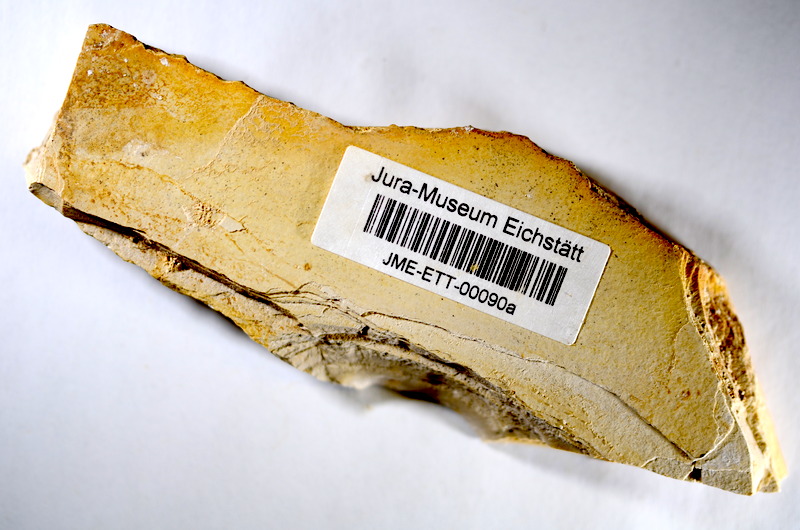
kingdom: Animalia
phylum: Chordata
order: Salmoniformes
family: Orthogonikleithridae
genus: Orthogonikleithrus
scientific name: Orthogonikleithrus hoelli
